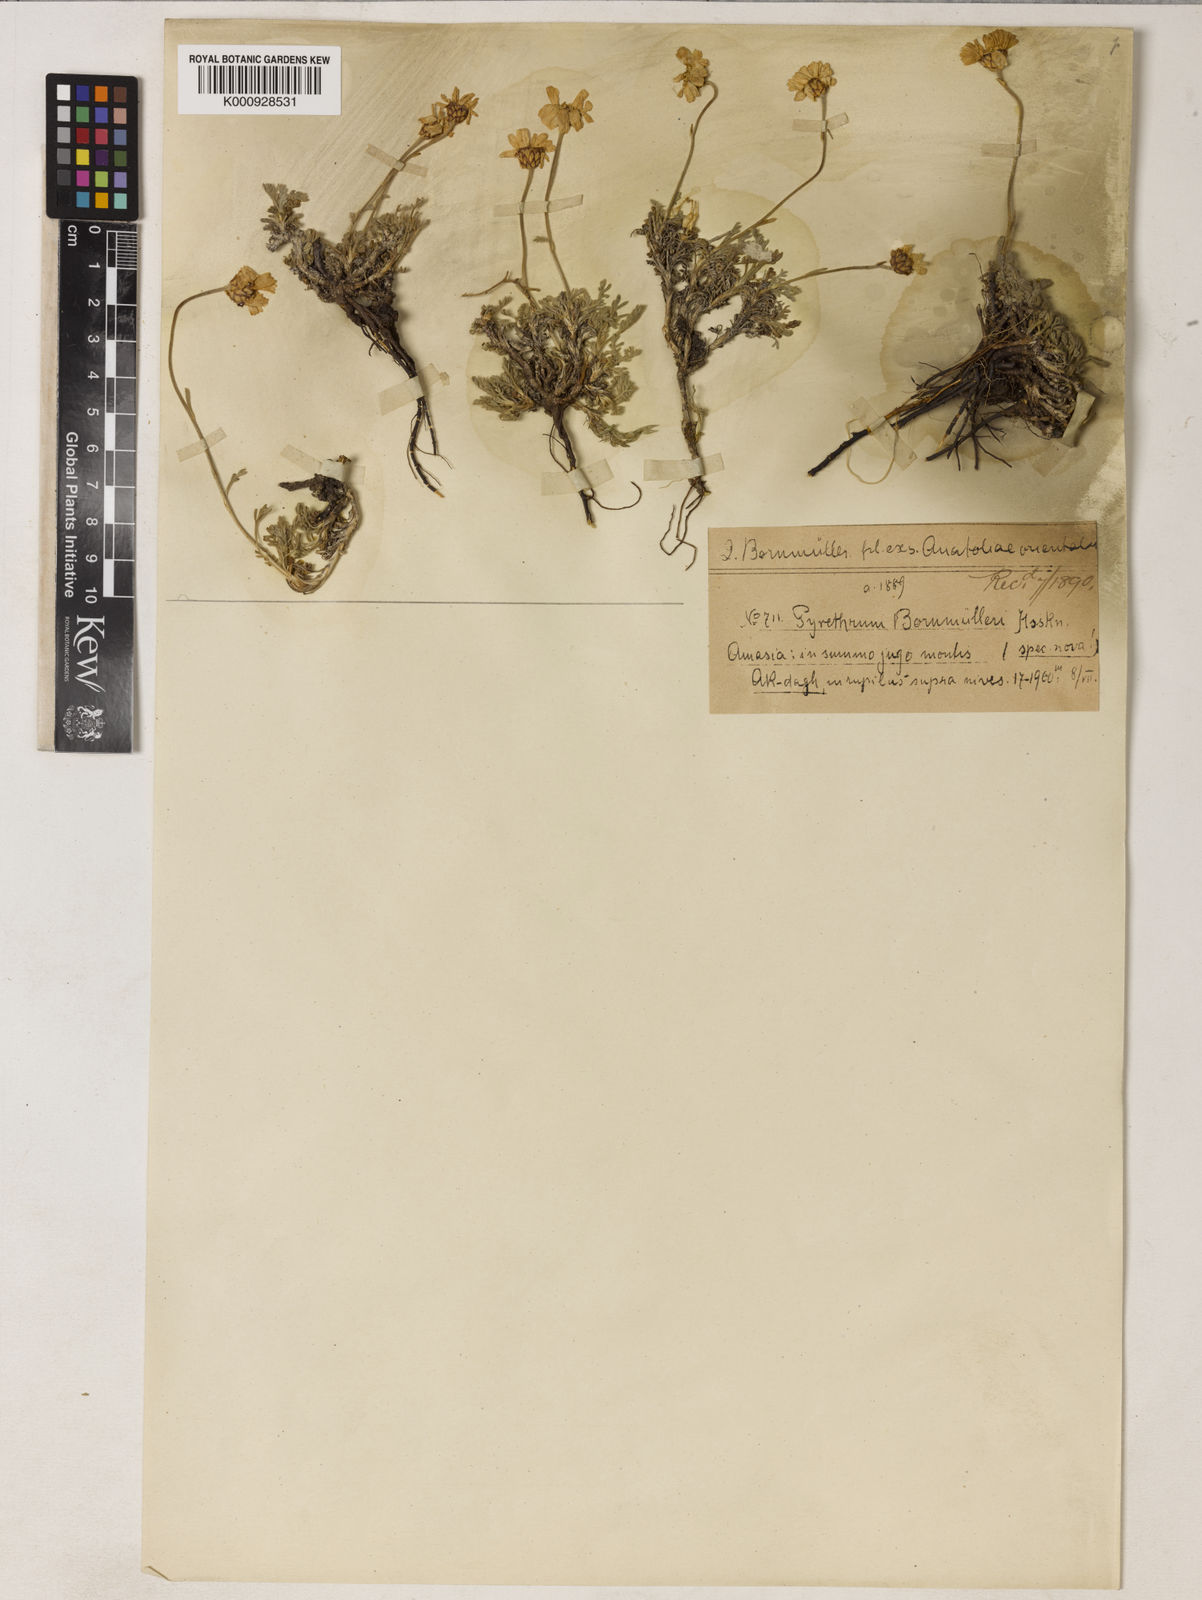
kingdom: Plantae
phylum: Tracheophyta
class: Magnoliopsida
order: Asterales
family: Asteraceae
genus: Tanacetum
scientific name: Tanacetum armenum
